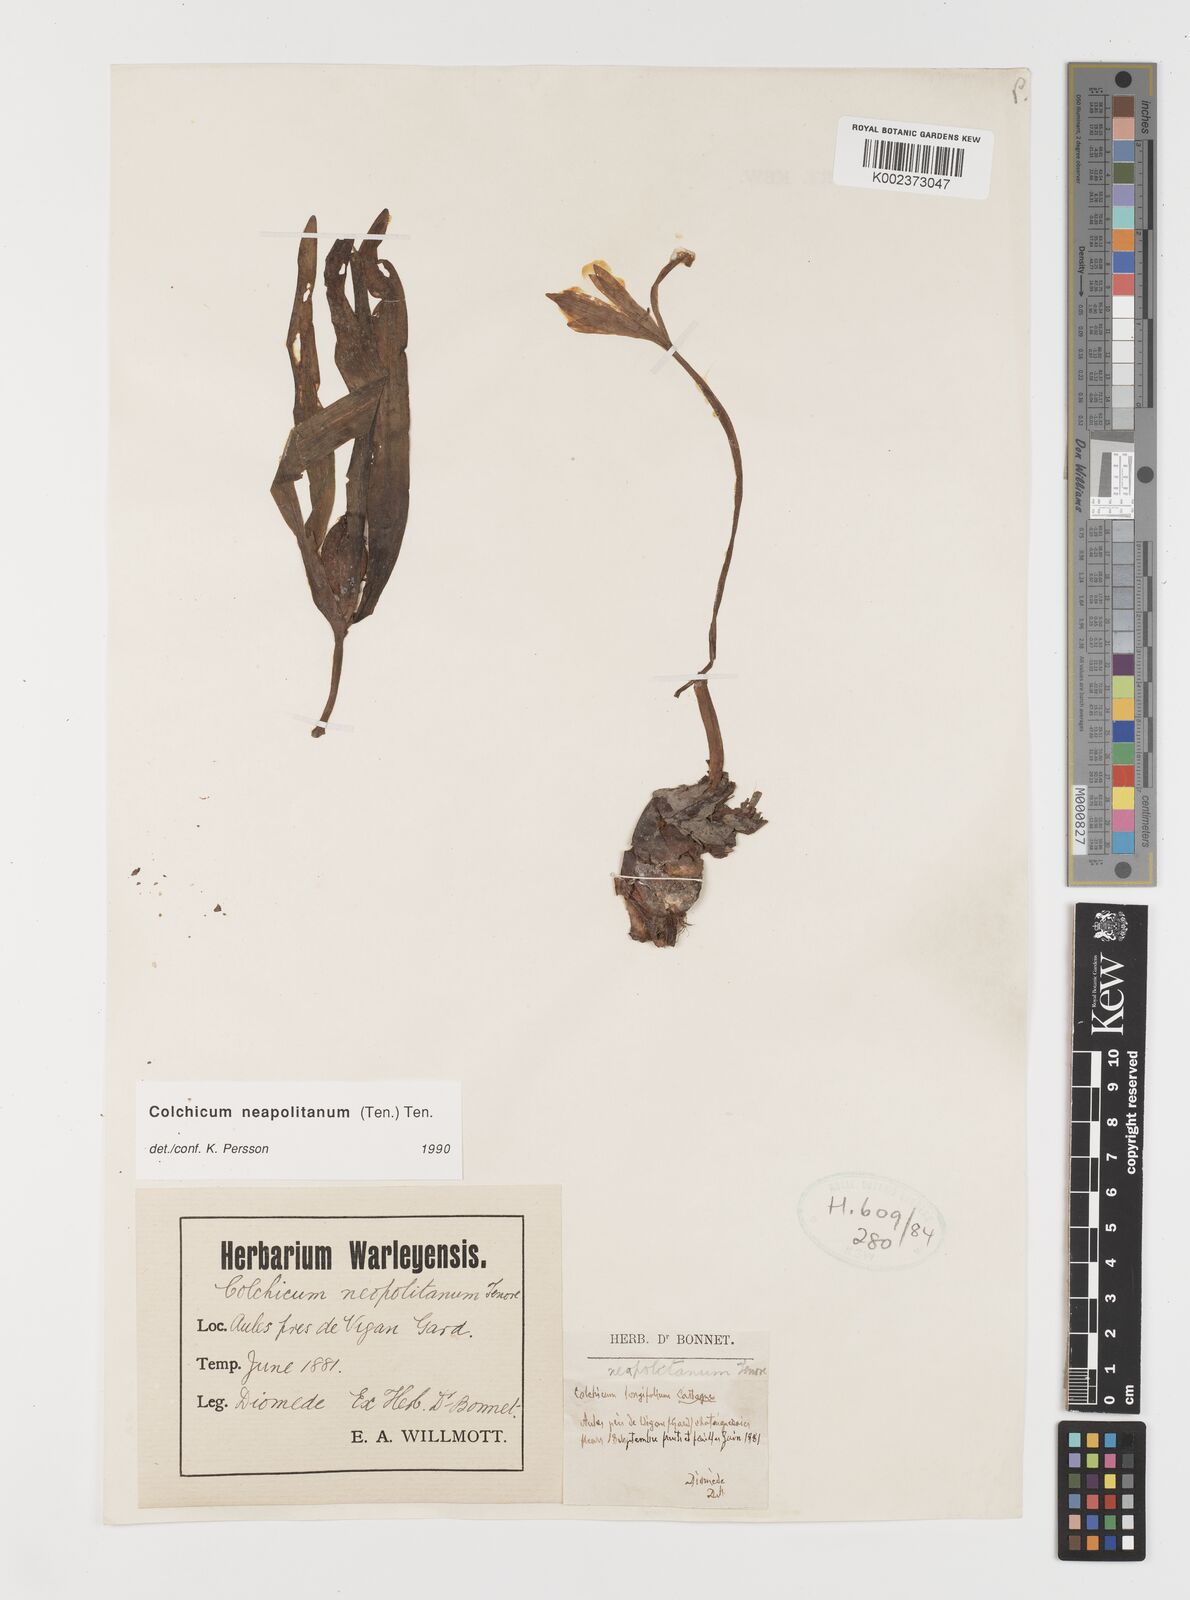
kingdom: Plantae
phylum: Tracheophyta
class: Liliopsida
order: Liliales
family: Colchicaceae
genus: Colchicum
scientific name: Colchicum neapolitanum
